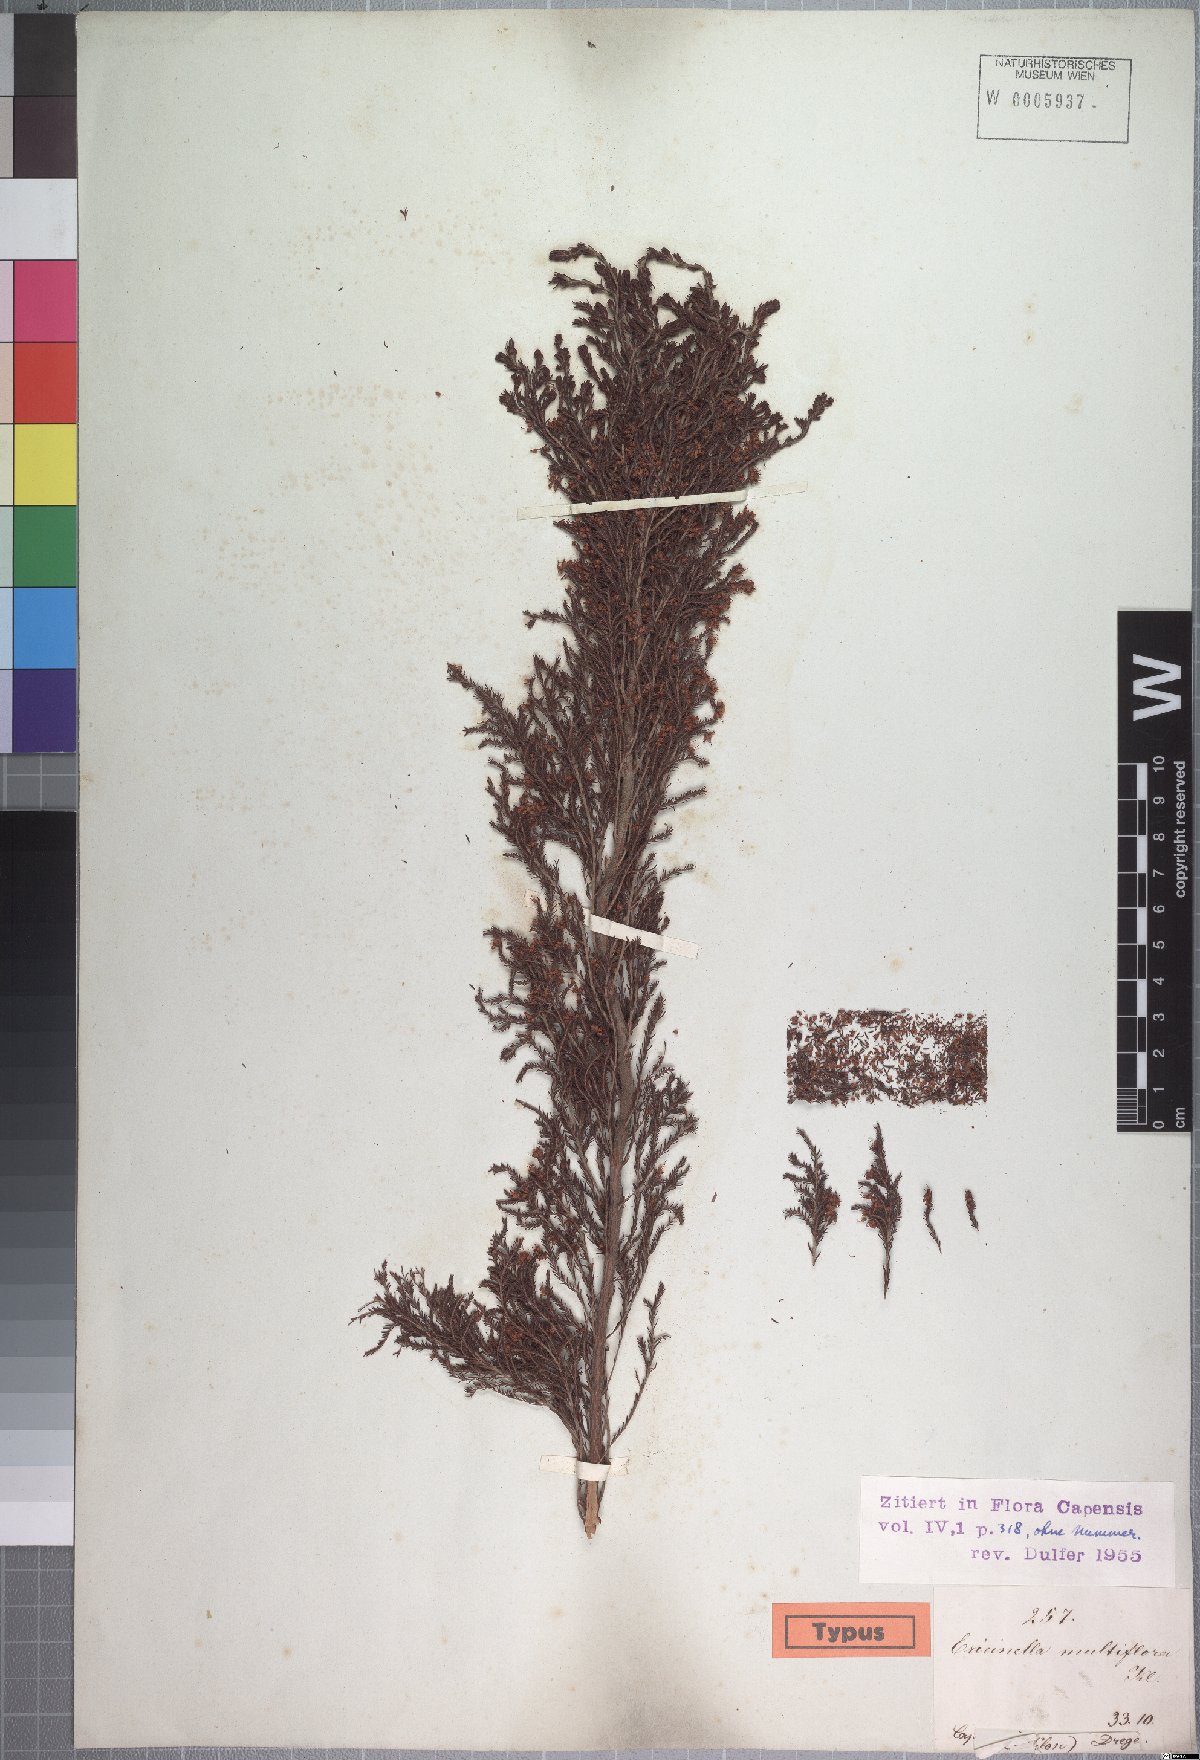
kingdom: Plantae
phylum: Tracheophyta
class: Magnoliopsida
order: Ericales
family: Ericaceae
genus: Erica
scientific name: Erica amatolensis
